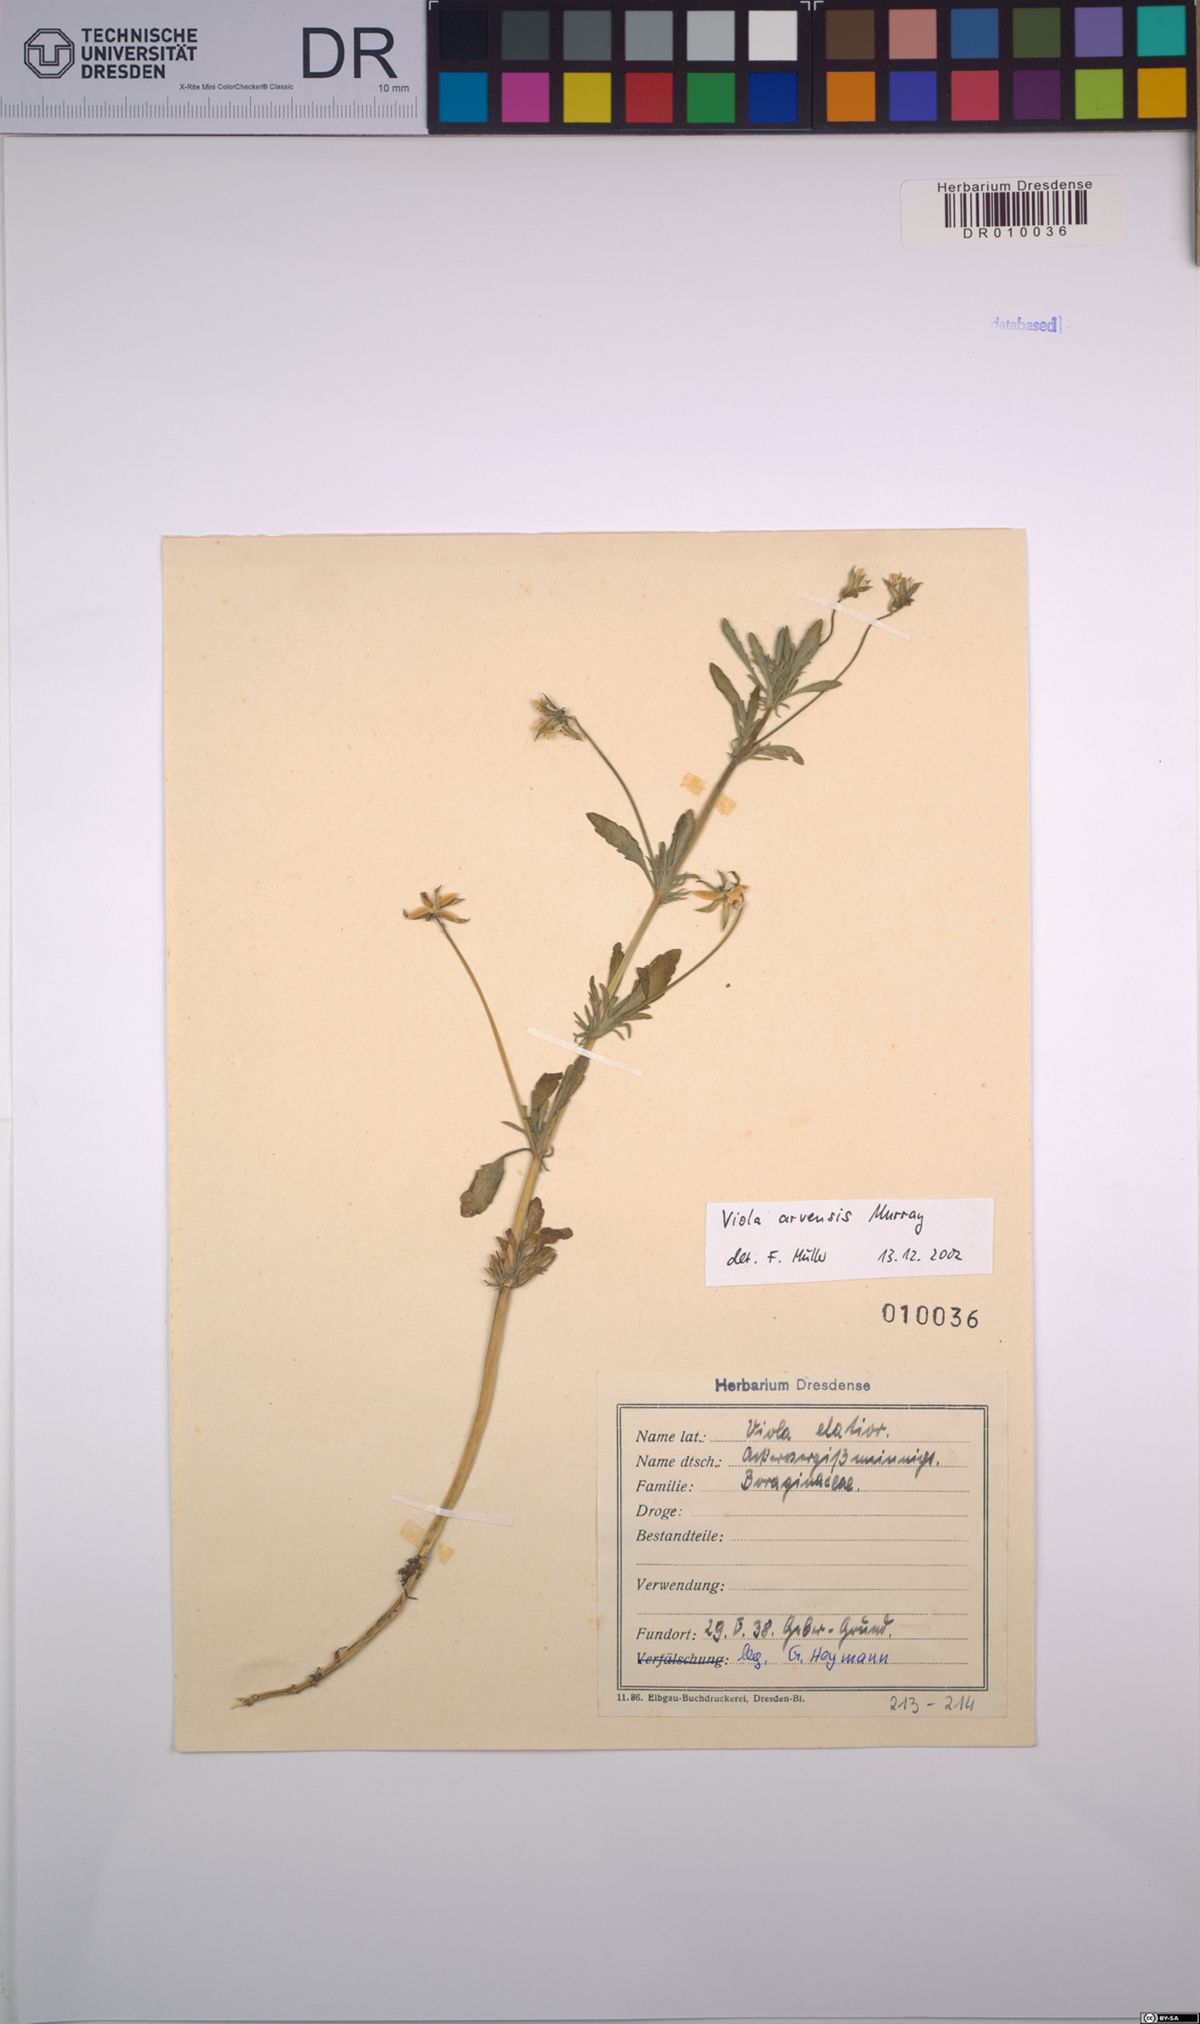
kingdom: Plantae
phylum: Tracheophyta
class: Magnoliopsida
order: Malpighiales
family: Violaceae
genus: Viola
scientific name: Viola arvensis
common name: Field pansy
